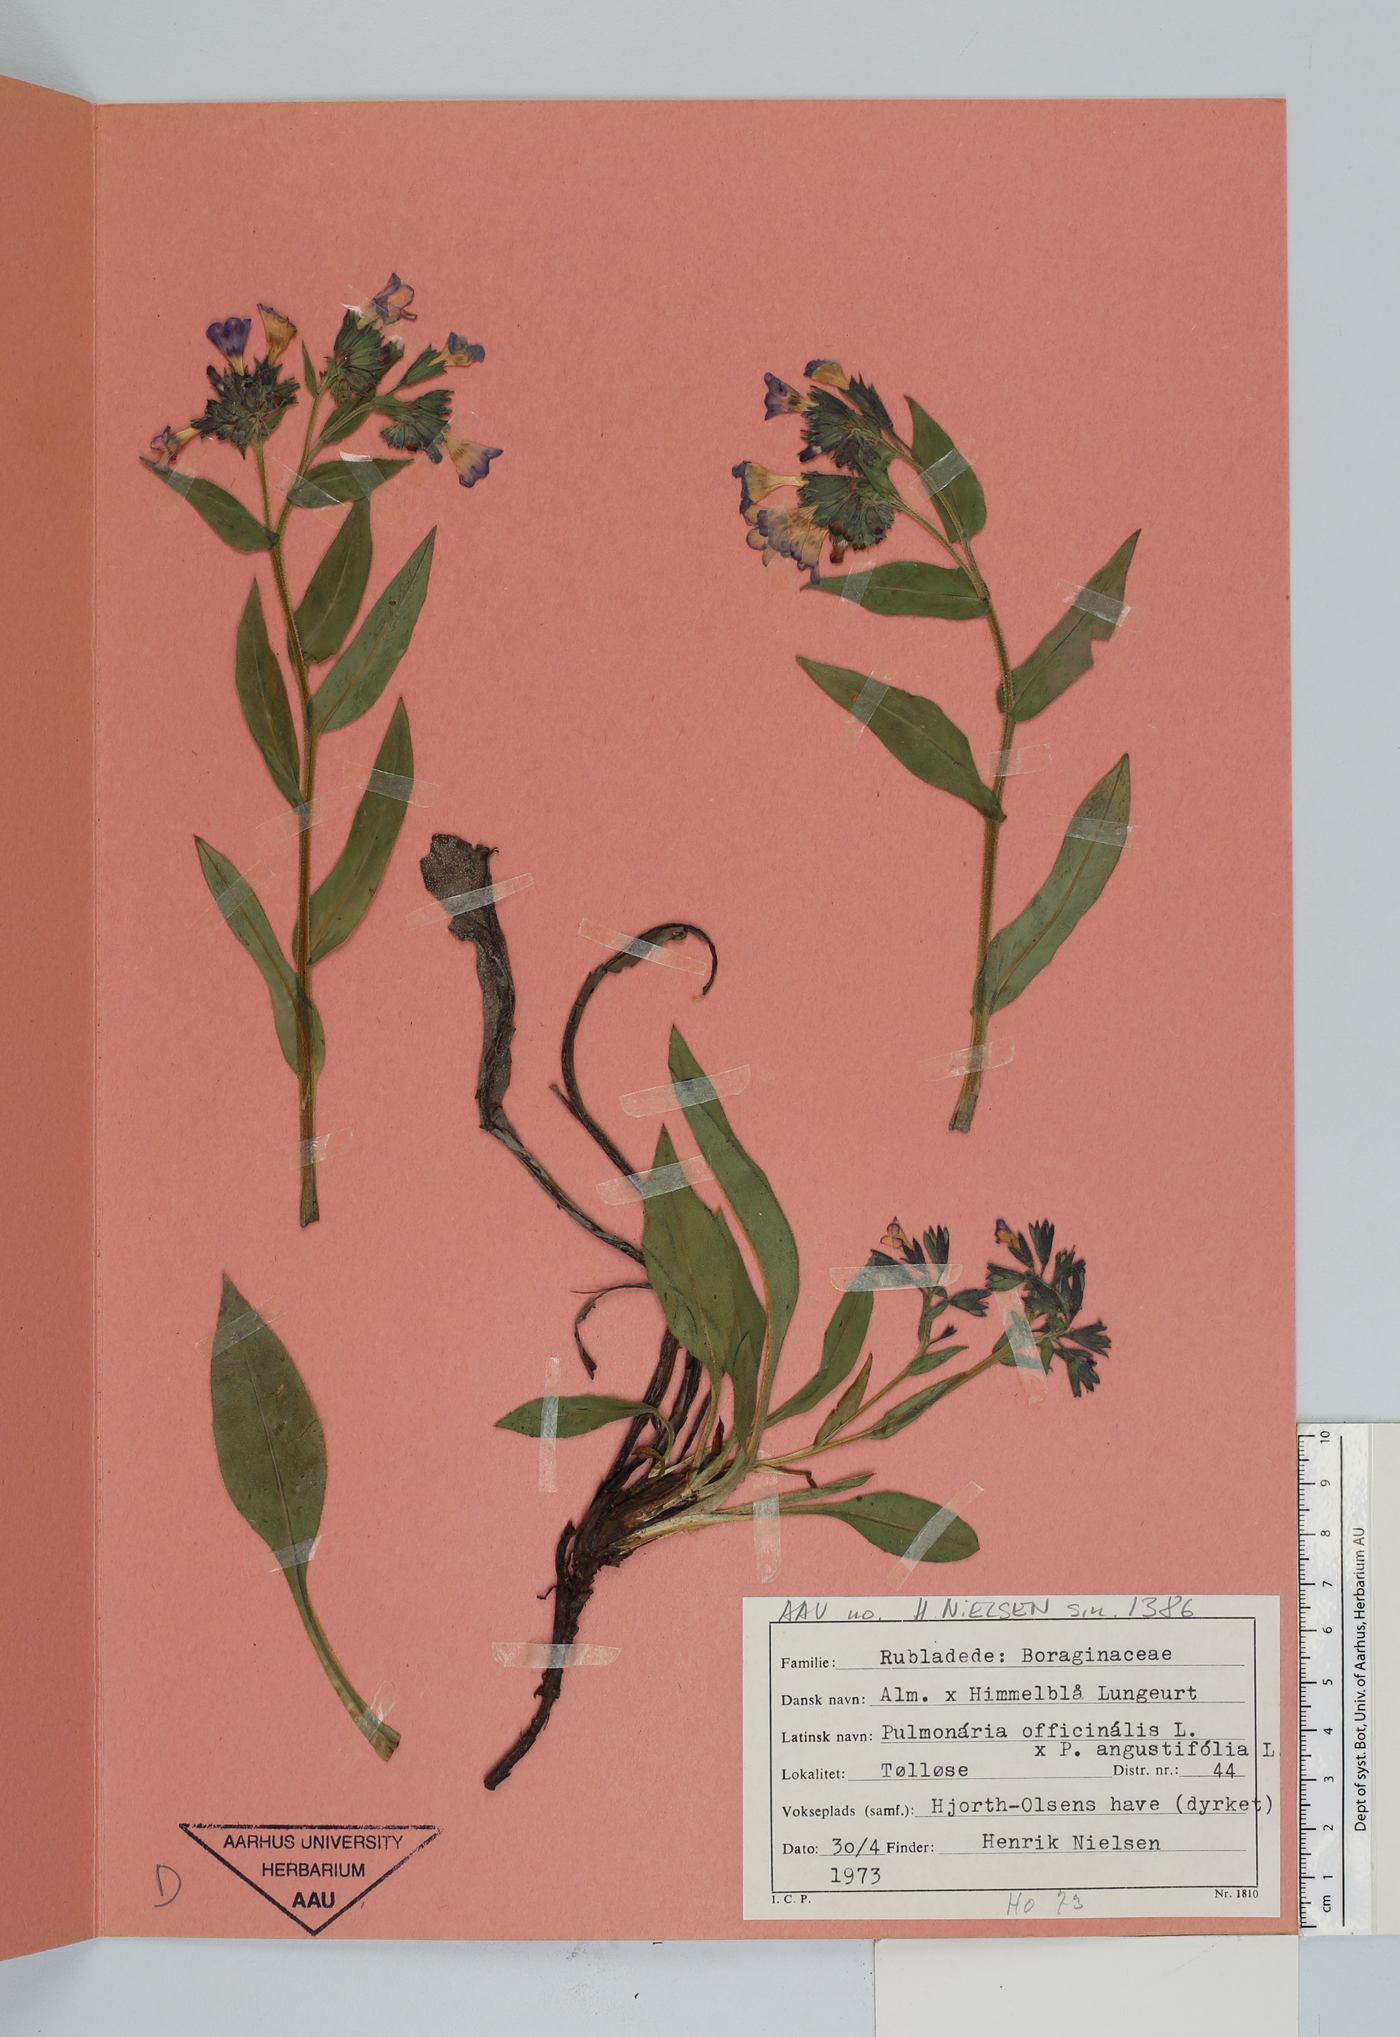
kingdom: Plantae
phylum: Tracheophyta
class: Magnoliopsida
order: Boraginales
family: Boraginaceae
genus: Pulmonaria
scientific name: Pulmonaria obscura
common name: Suffolk lungwort
